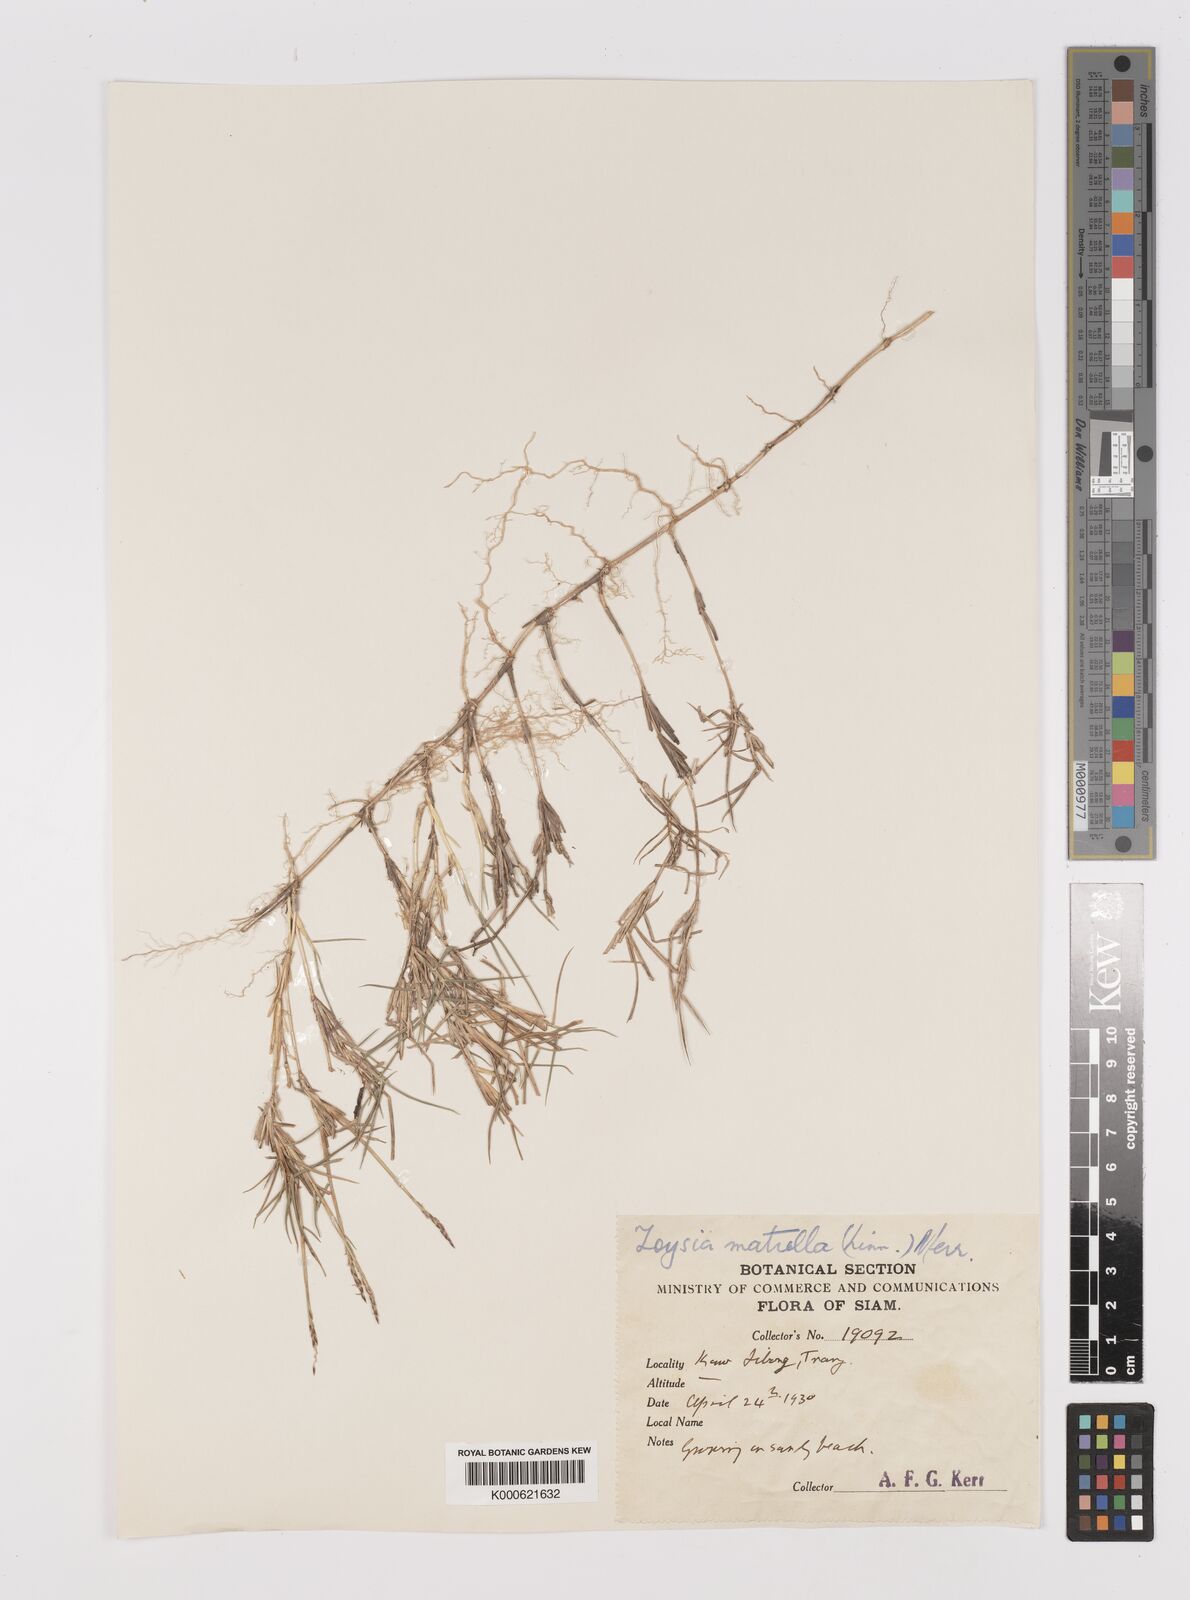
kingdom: Plantae
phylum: Tracheophyta
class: Liliopsida
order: Poales
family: Poaceae
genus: Zoysia
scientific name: Zoysia matrella
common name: Manila grass
